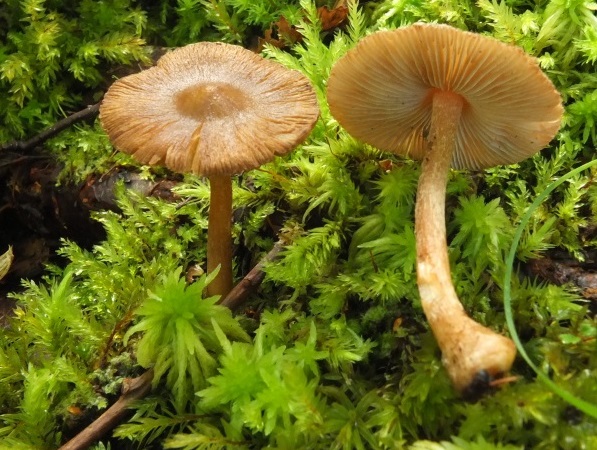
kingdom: Fungi
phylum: Basidiomycota
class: Agaricomycetes
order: Agaricales
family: Inocybaceae
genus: Inocybe
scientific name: Inocybe napipes
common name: roeknoldet trævlhat
